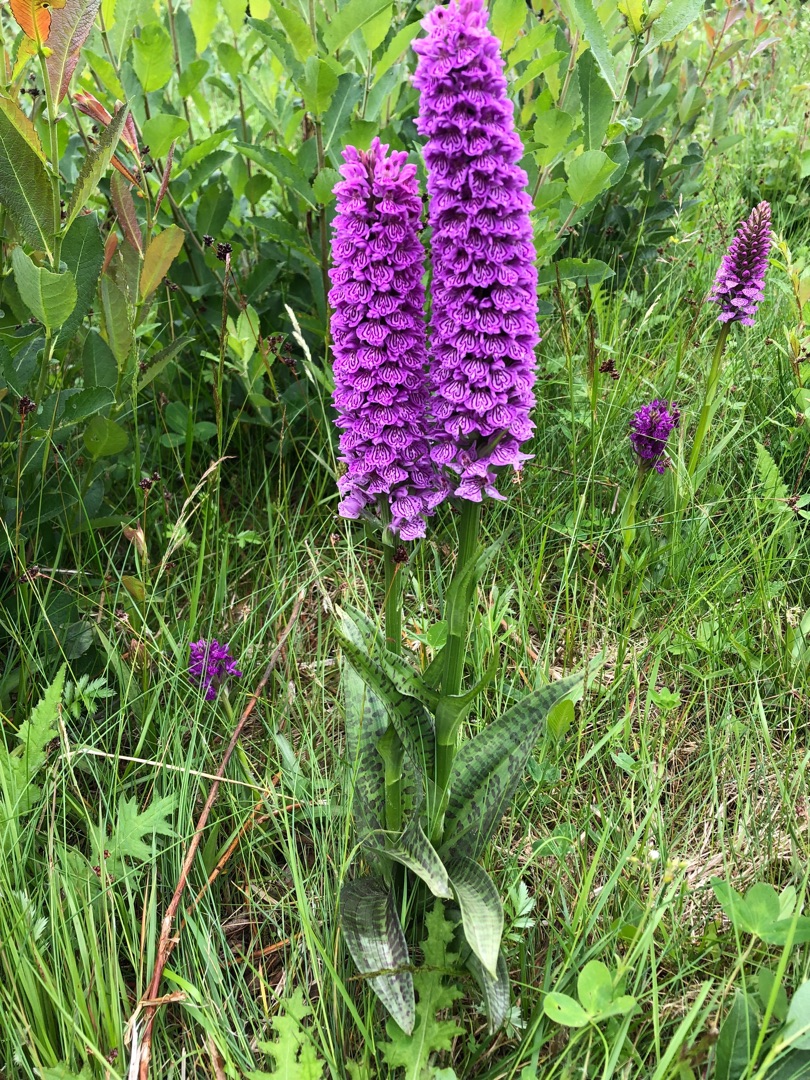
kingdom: Plantae
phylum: Tracheophyta
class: Liliopsida
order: Asparagales
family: Orchidaceae
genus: Dactylorhiza
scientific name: Dactylorhiza majalis
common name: Ringplettet gøgeurt
